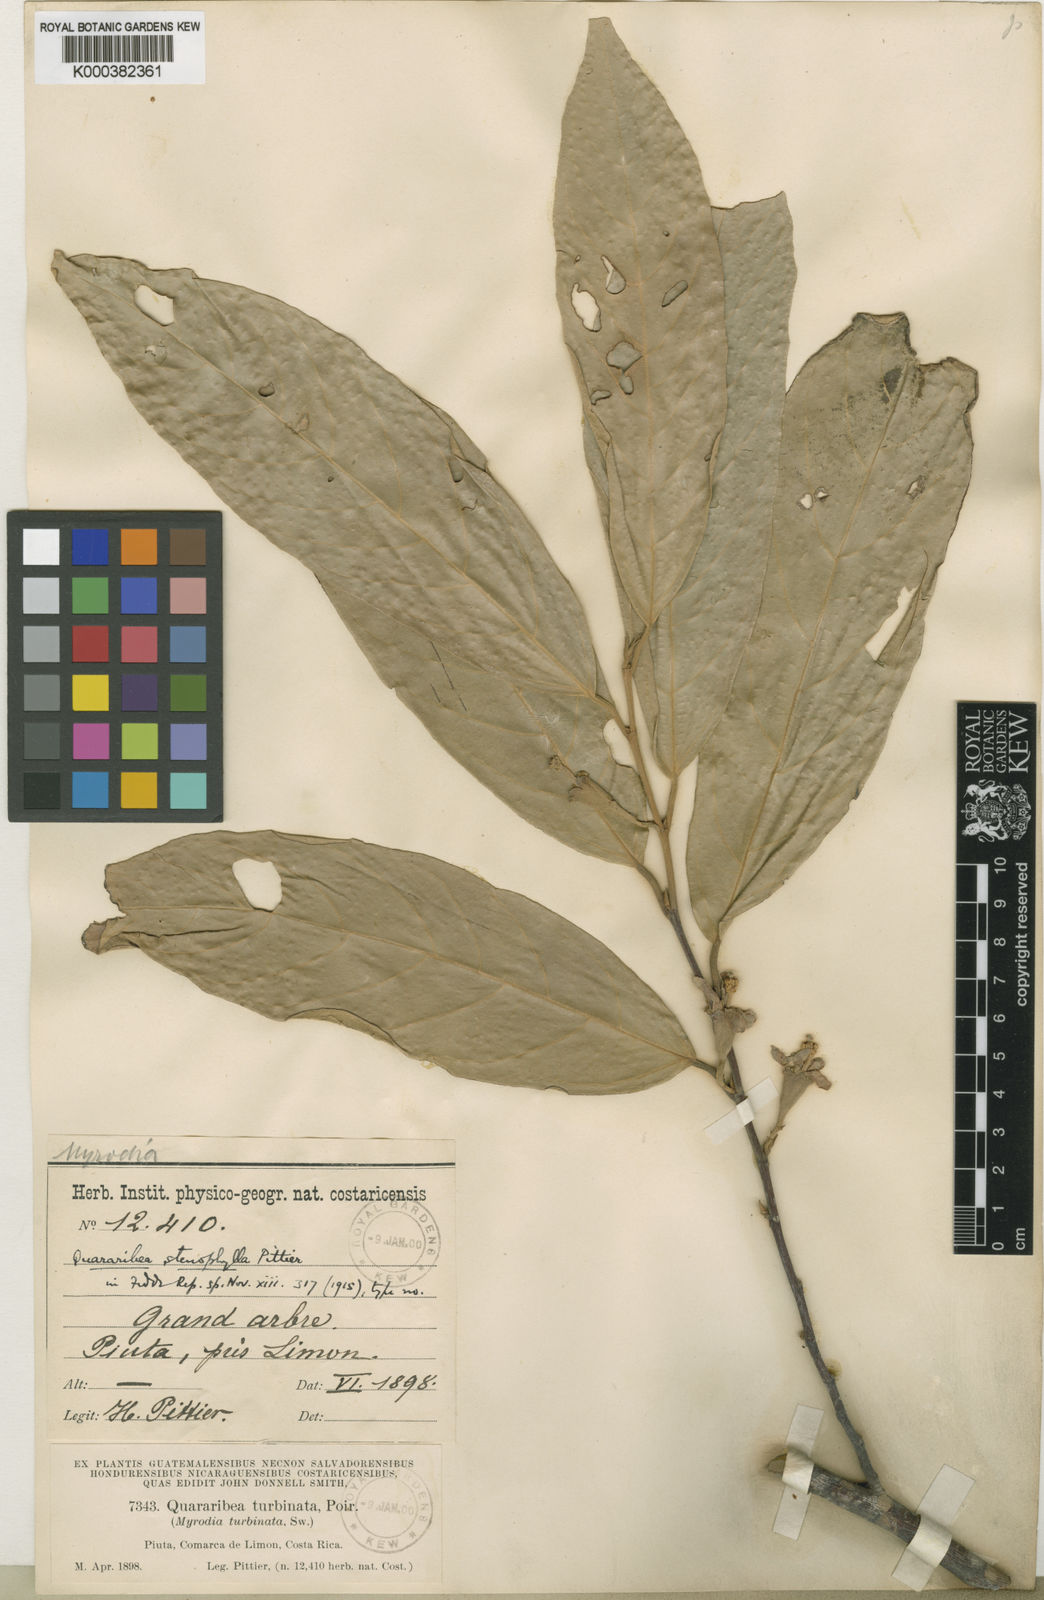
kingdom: Plantae
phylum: Tracheophyta
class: Magnoliopsida
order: Malvales
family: Malvaceae
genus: Quararibea
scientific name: Quararibea stenophylla
